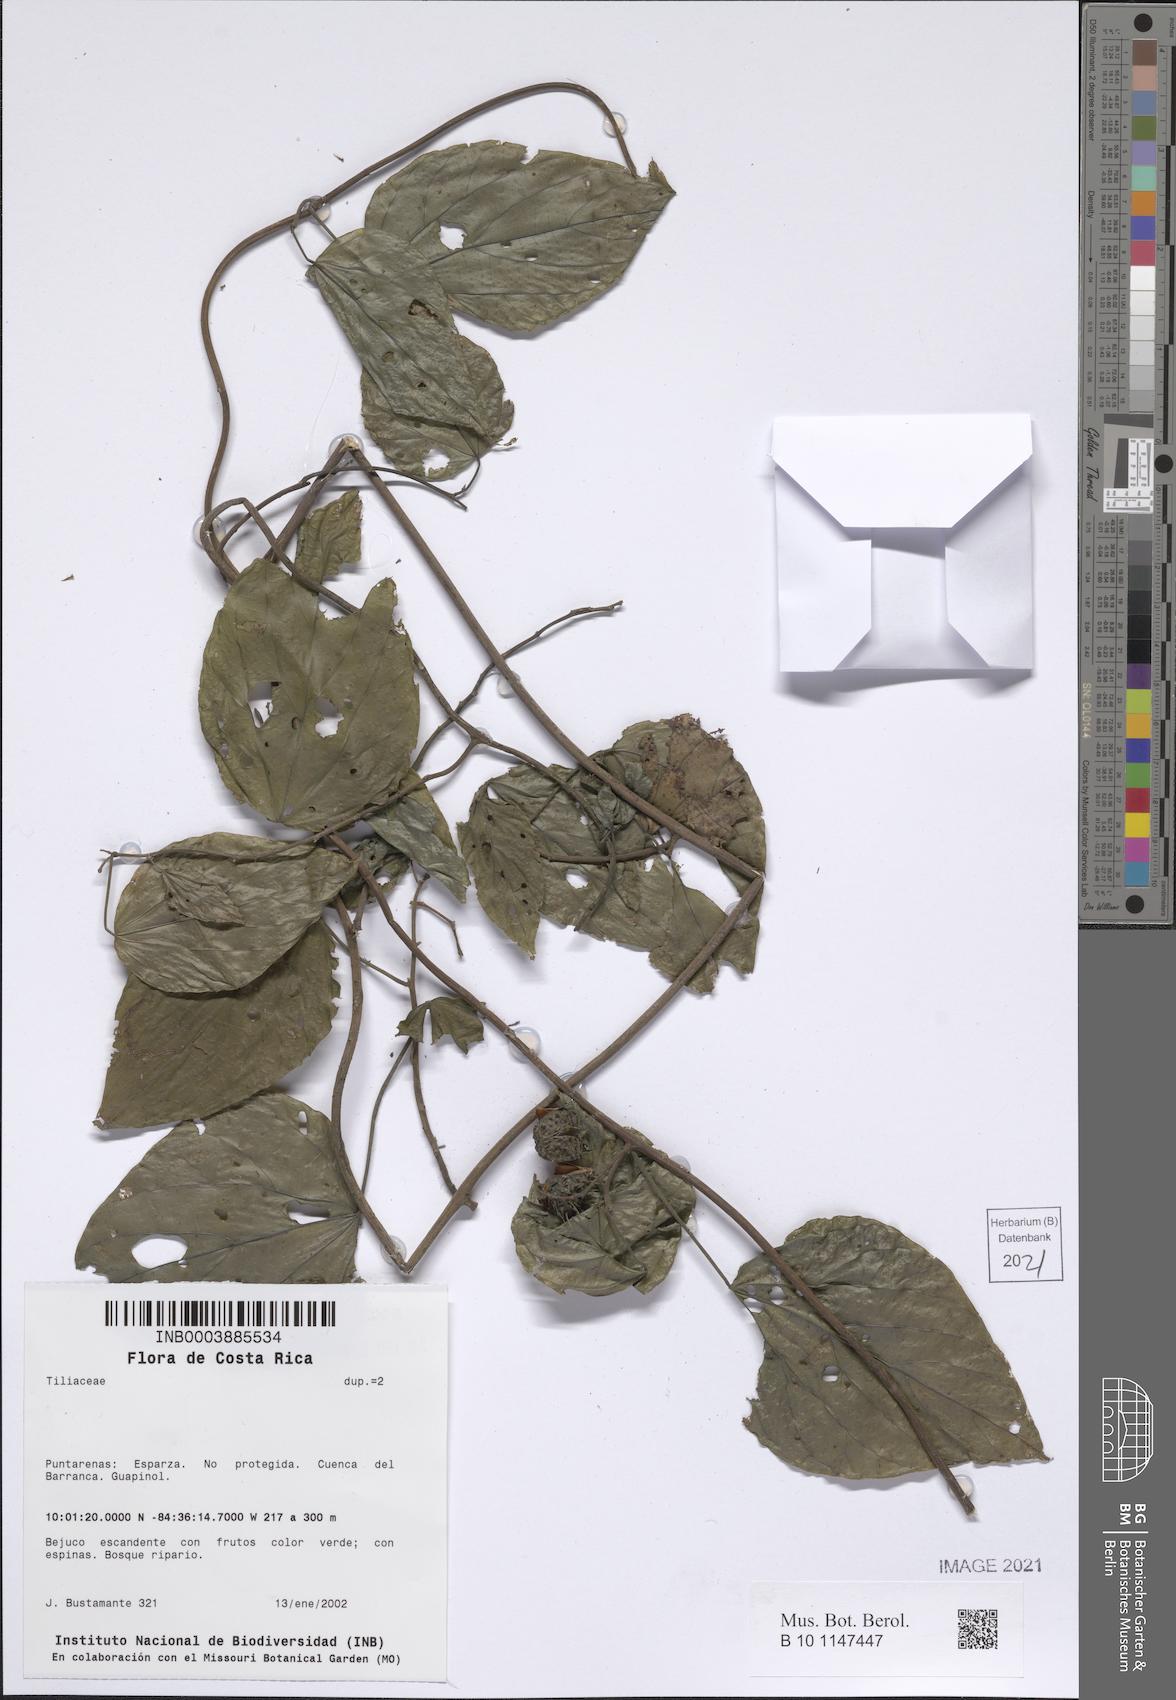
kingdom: Plantae
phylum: Tracheophyta
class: Magnoliopsida
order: Malvales
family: Tiliaceae
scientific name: Tiliaceae
